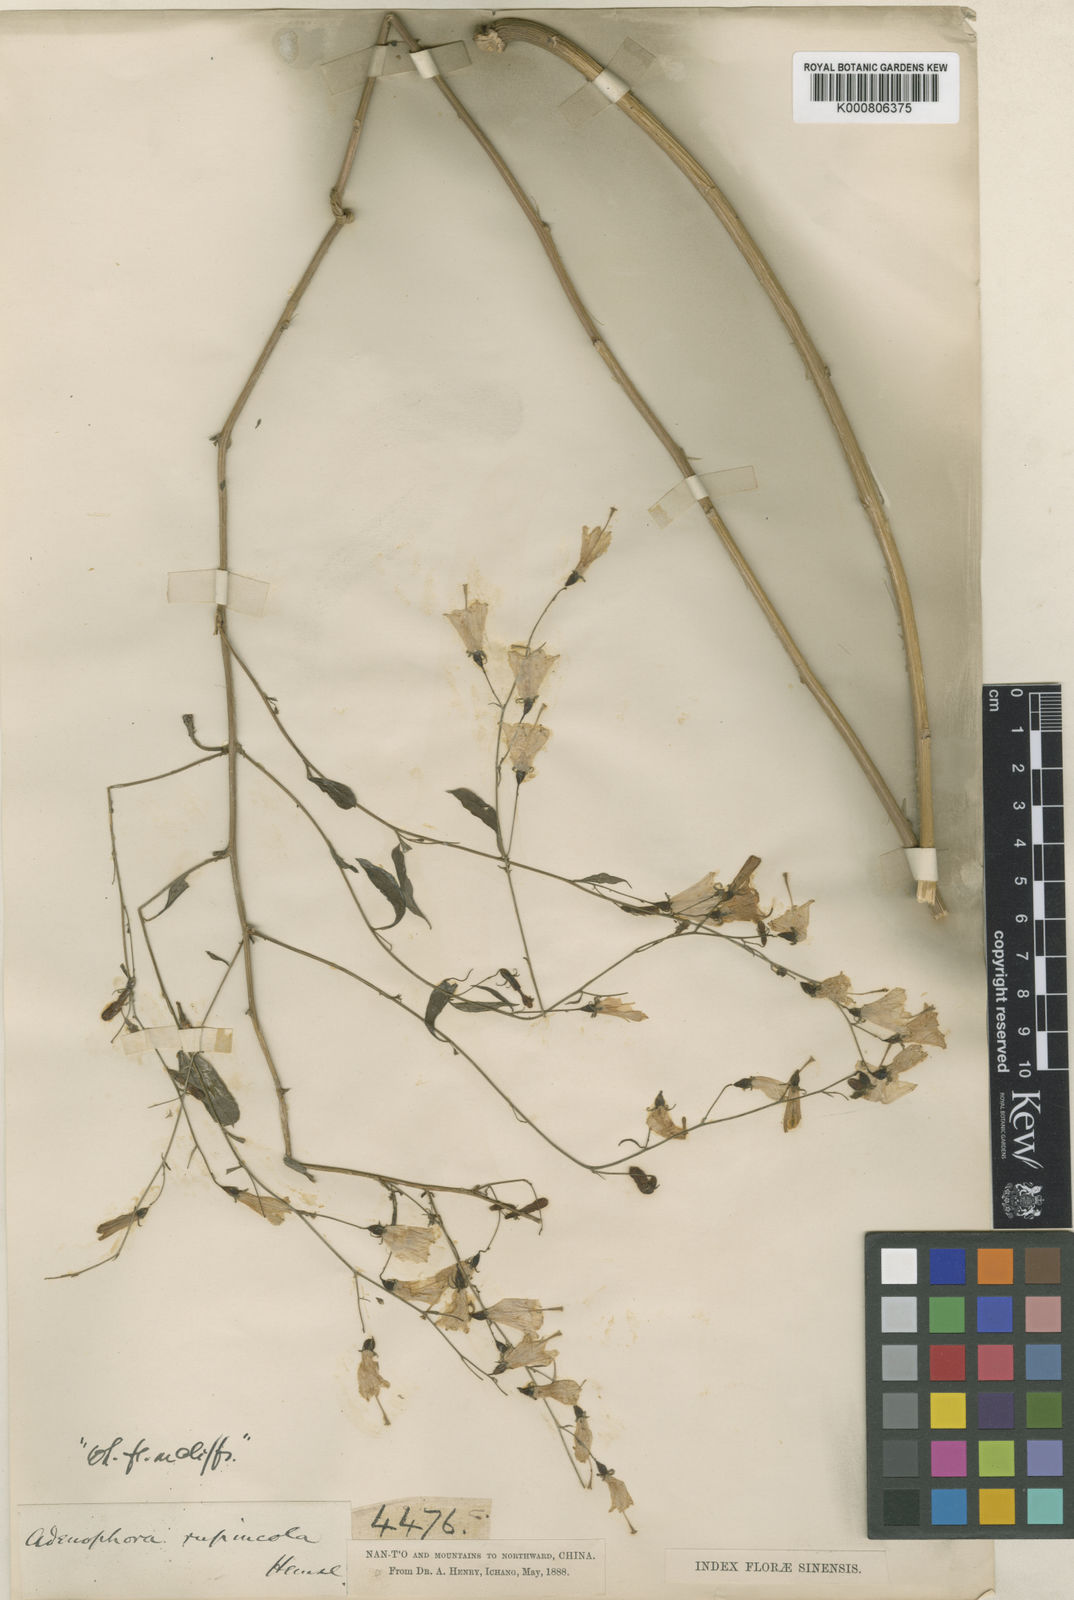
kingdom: Plantae
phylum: Tracheophyta
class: Magnoliopsida
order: Asterales
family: Campanulaceae
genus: Adenophora
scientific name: Adenophora rupincola
